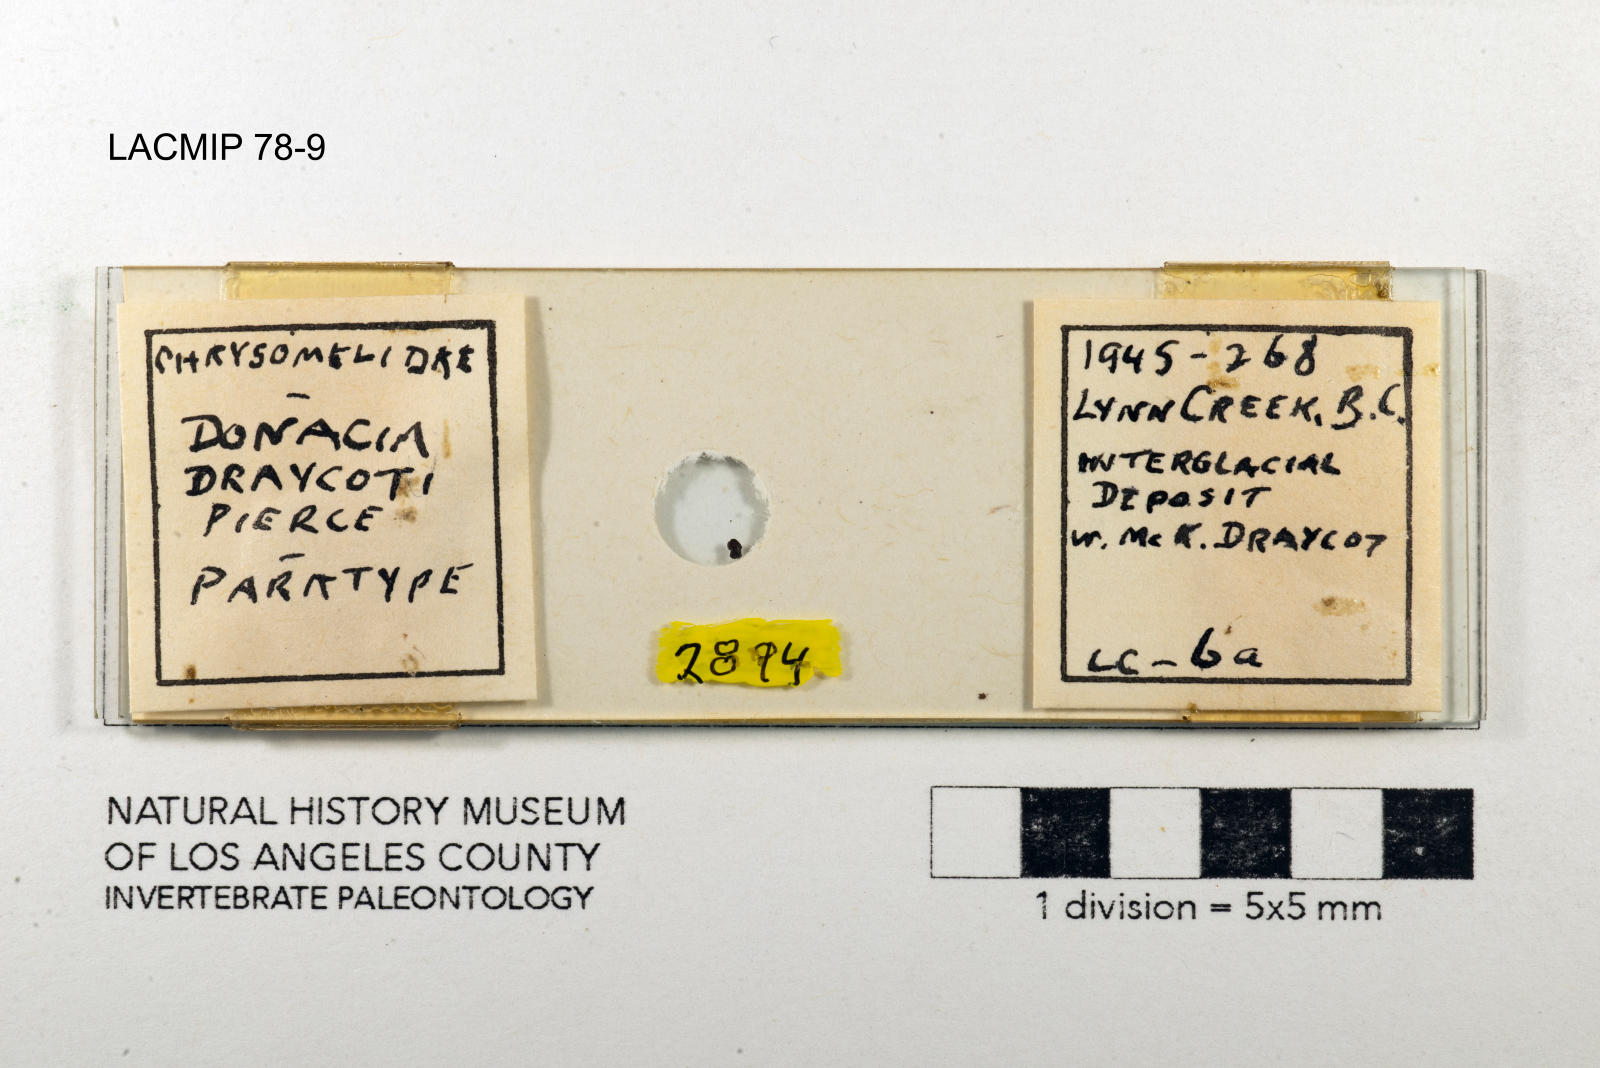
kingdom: Animalia
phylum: Arthropoda
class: Insecta
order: Coleoptera
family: Chrysomelidae
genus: Donacia
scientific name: Donacia draycoti
